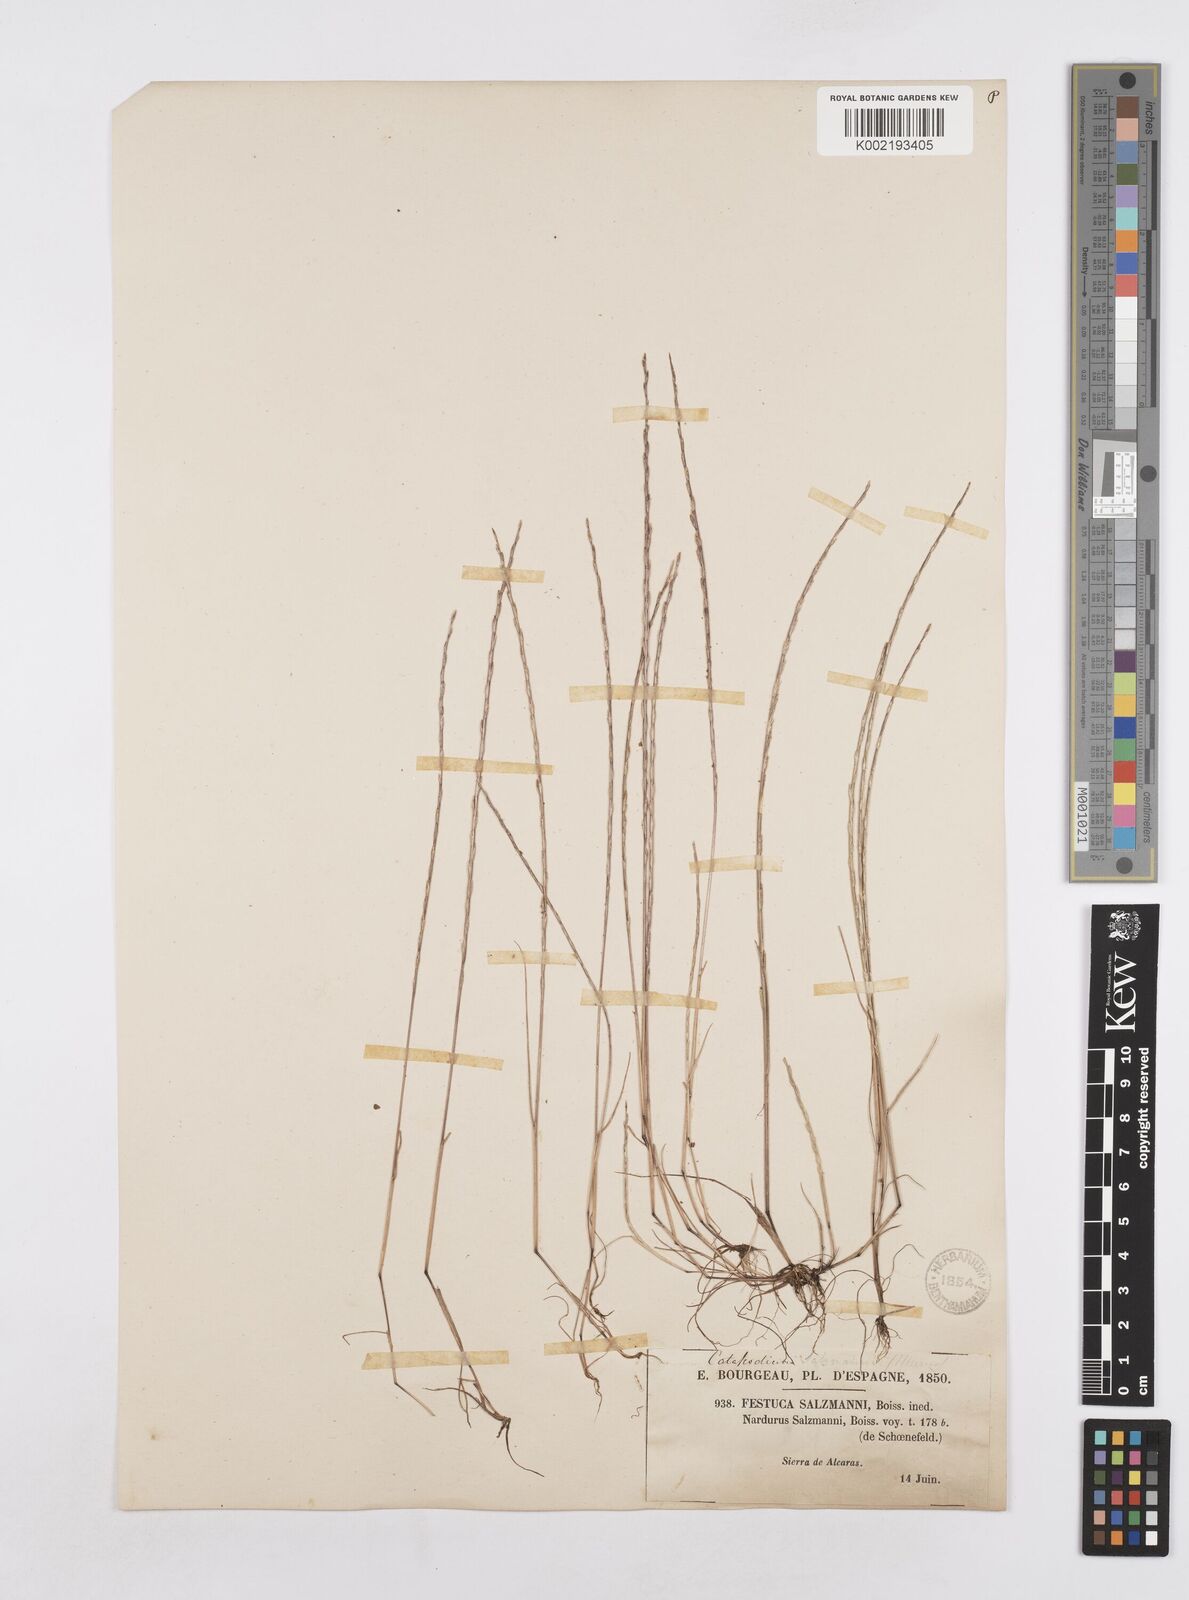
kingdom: Plantae
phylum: Tracheophyta
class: Liliopsida
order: Poales
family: Poaceae
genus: Festuca
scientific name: Festuca salzmannii
